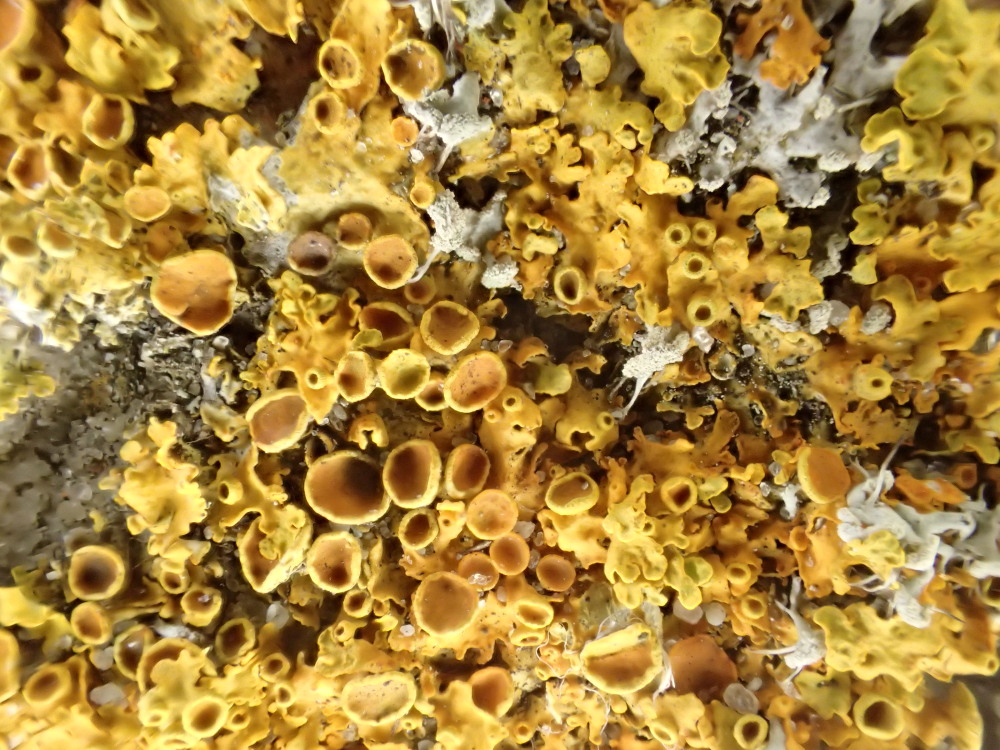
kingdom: Fungi
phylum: Ascomycota
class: Lecanoromycetes
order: Teloschistales
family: Teloschistaceae
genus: Xanthoria
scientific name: Xanthoria parietina
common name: almindelig væggelav
